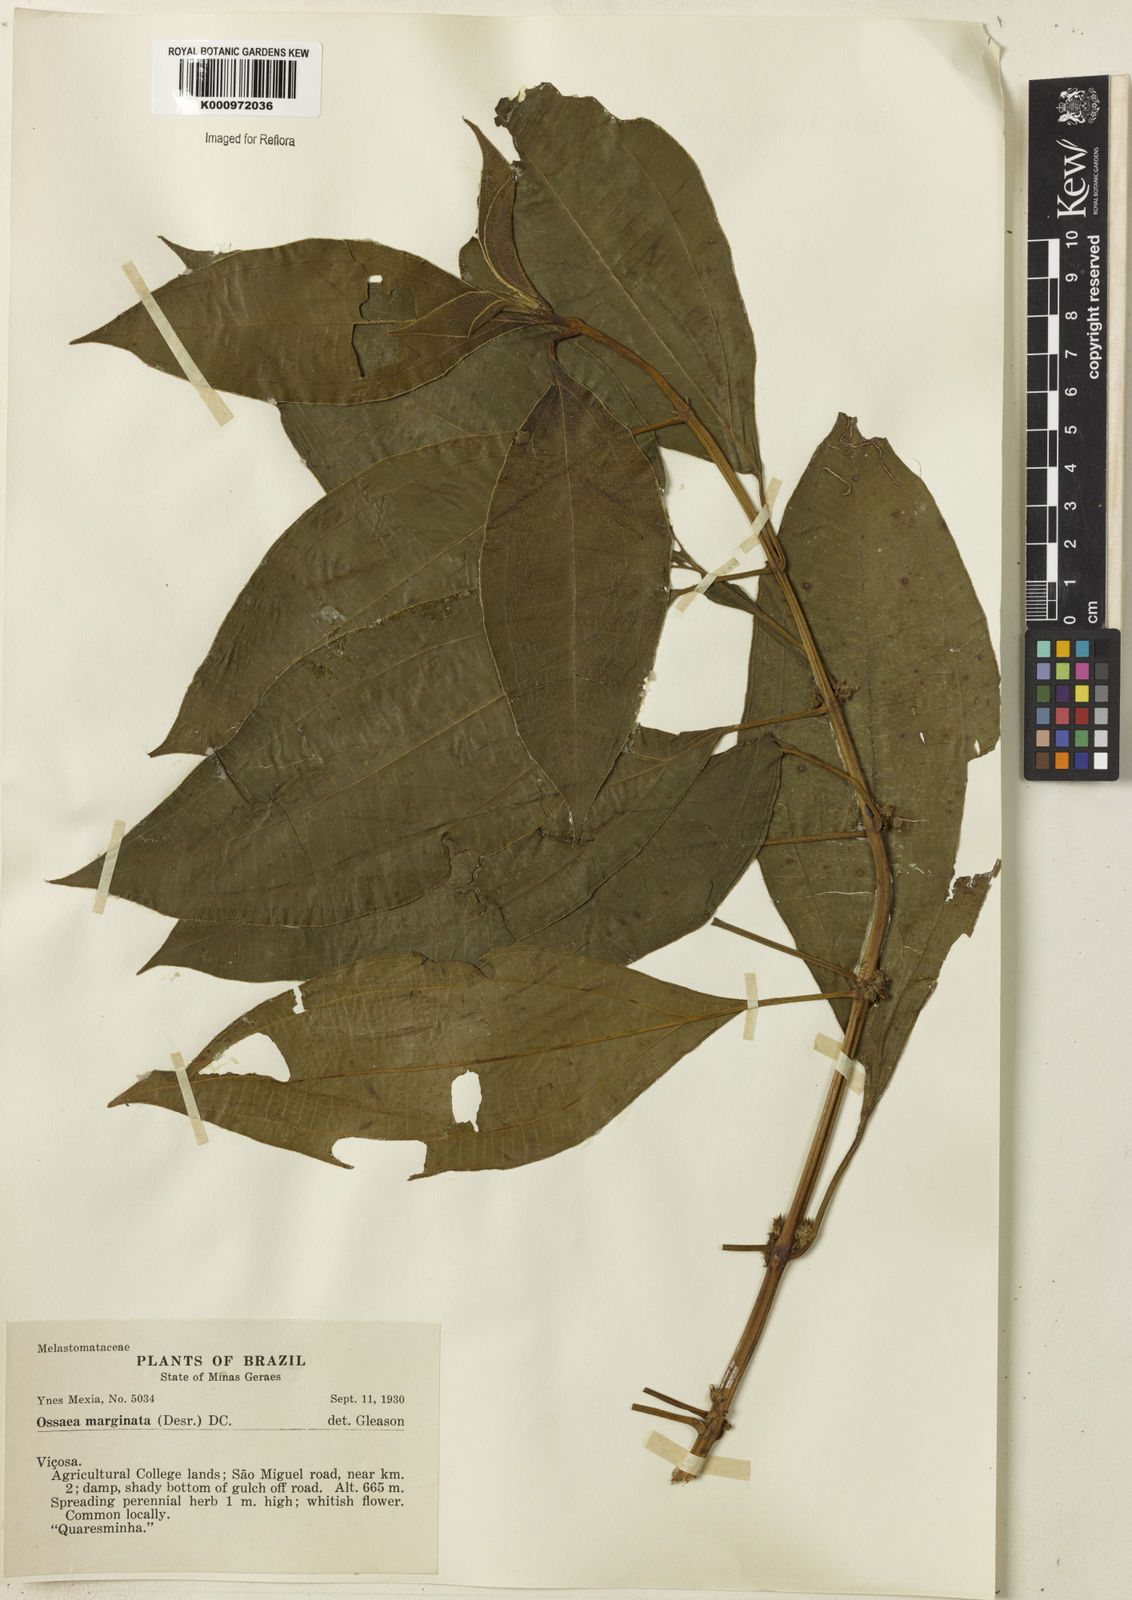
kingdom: Plantae
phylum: Tracheophyta
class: Magnoliopsida
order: Myrtales
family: Melastomataceae
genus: Miconia
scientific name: Miconia leamarginata
